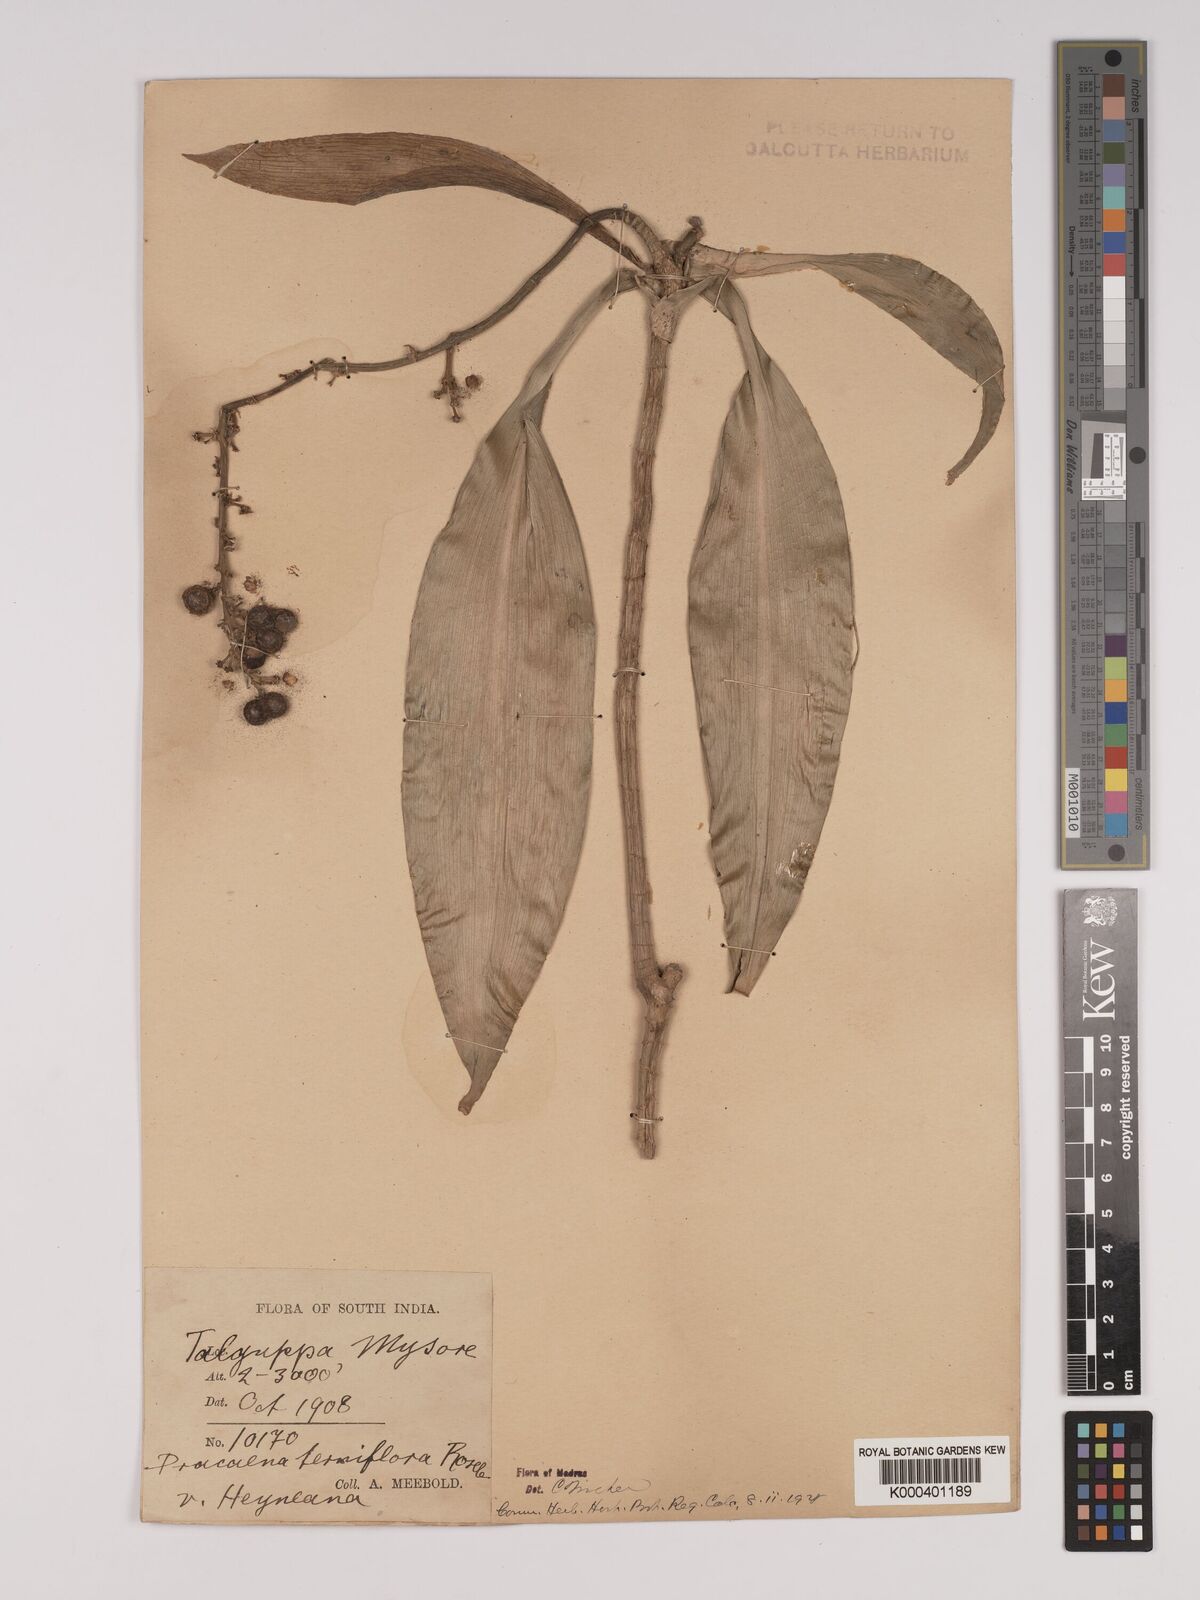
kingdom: Plantae
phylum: Tracheophyta
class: Liliopsida
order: Asparagales
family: Asparagaceae
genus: Dracaena
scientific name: Dracaena terniflora
